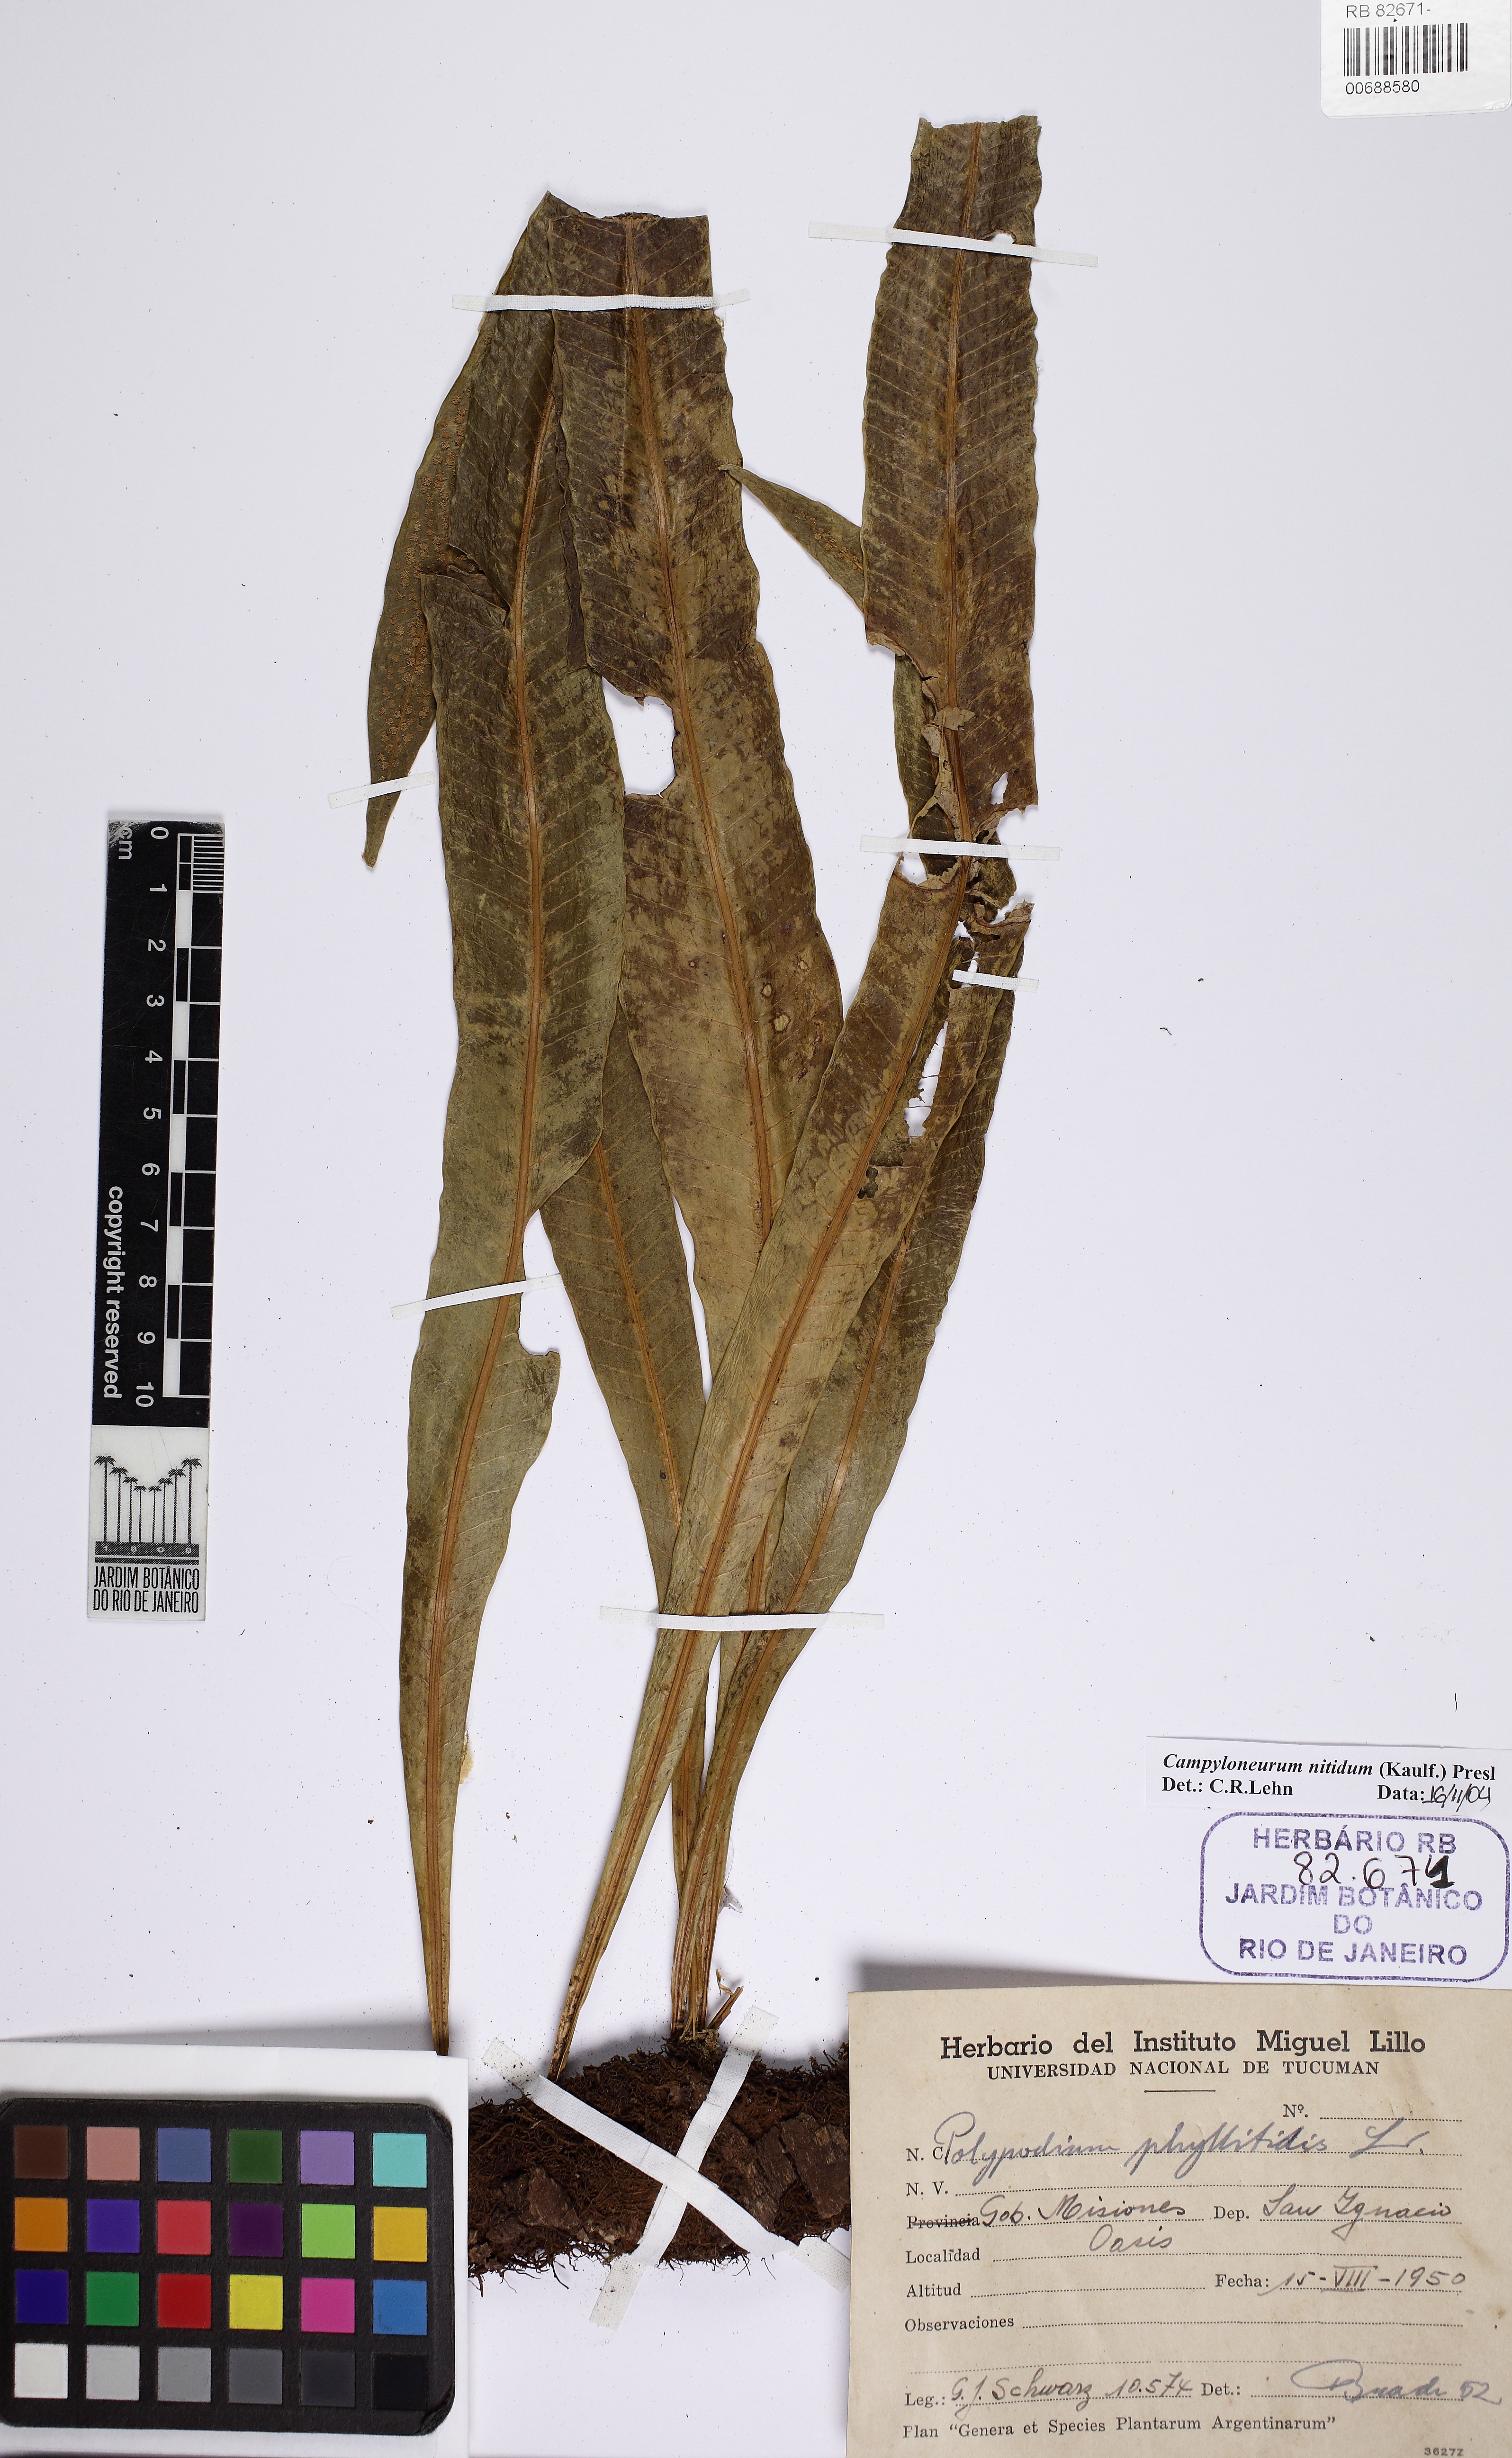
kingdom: Plantae
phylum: Tracheophyta
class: Polypodiopsida
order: Polypodiales
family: Polypodiaceae
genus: Campyloneurum
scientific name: Campyloneurum nitidum
